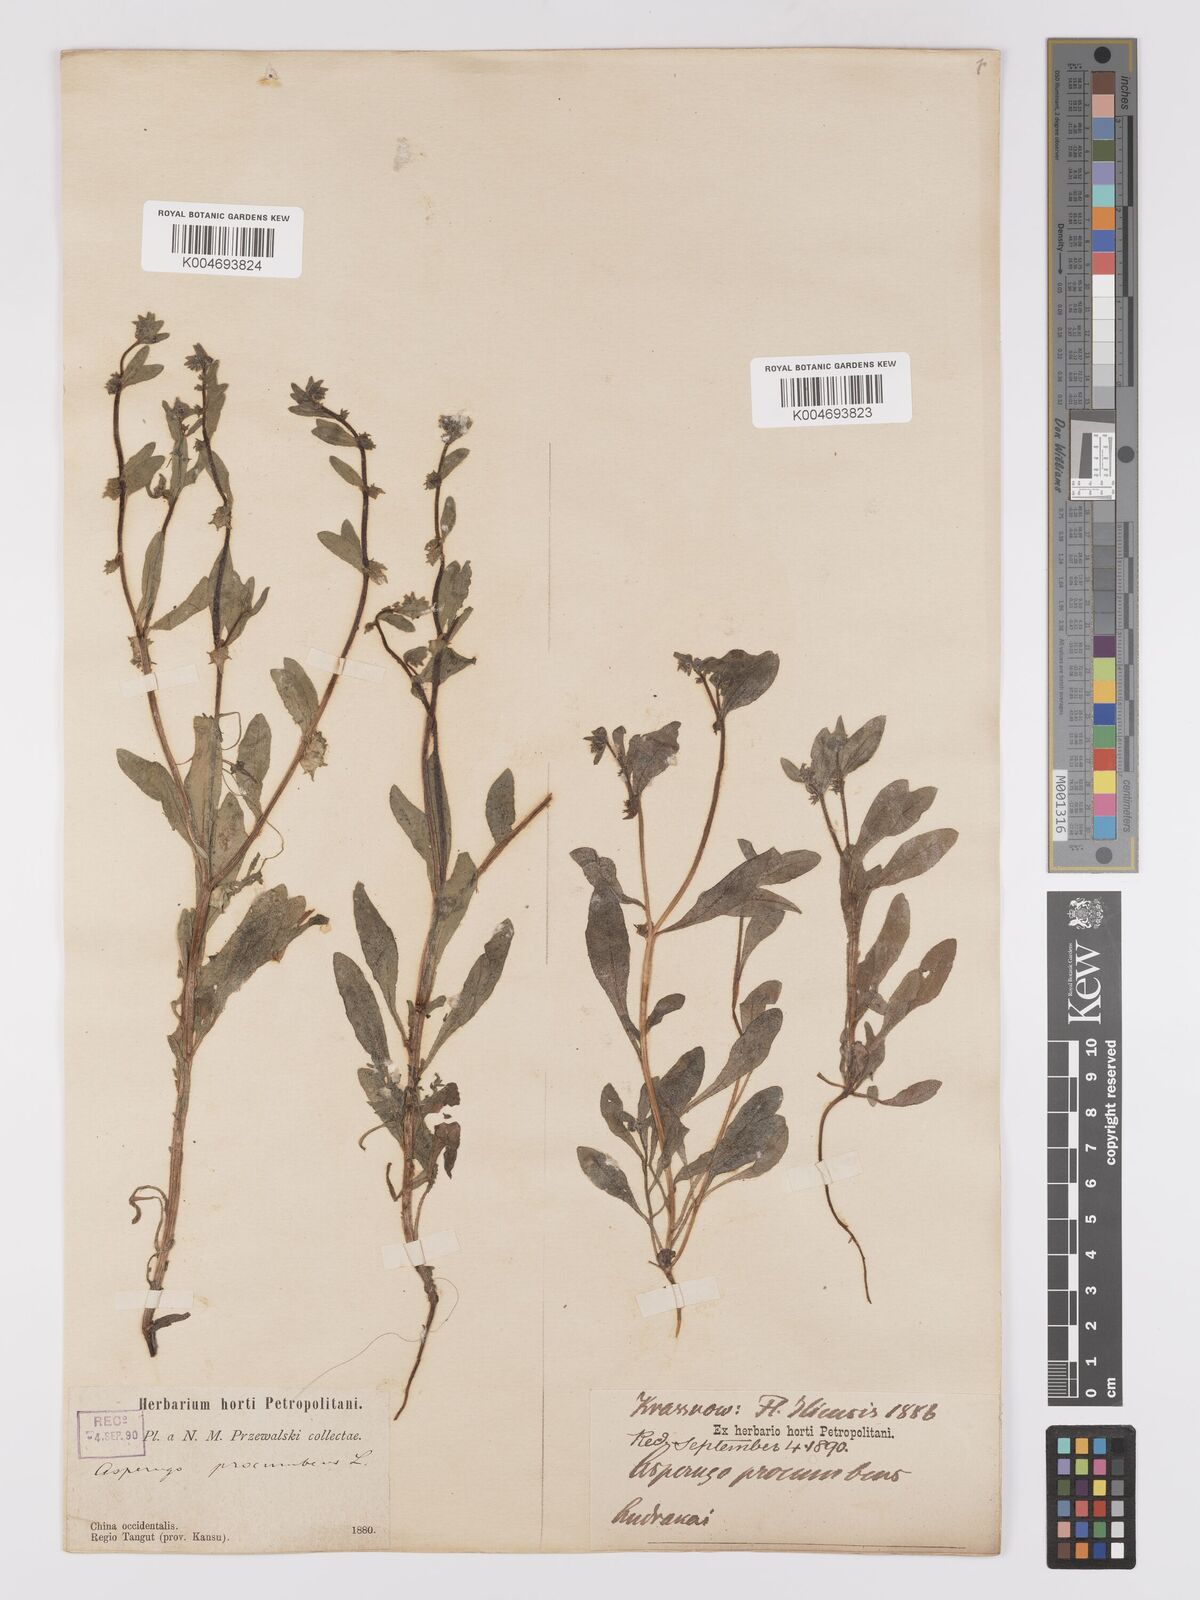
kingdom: Plantae
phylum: Tracheophyta
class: Magnoliopsida
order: Boraginales
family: Boraginaceae
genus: Asperugo
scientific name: Asperugo procumbens
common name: Madwort
